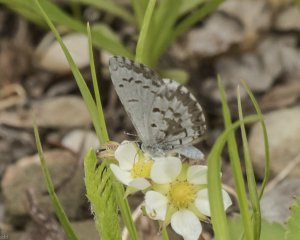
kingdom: Animalia
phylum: Arthropoda
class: Insecta
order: Lepidoptera
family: Lycaenidae
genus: Celastrina
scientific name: Celastrina lucia
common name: Northern Spring Azure
